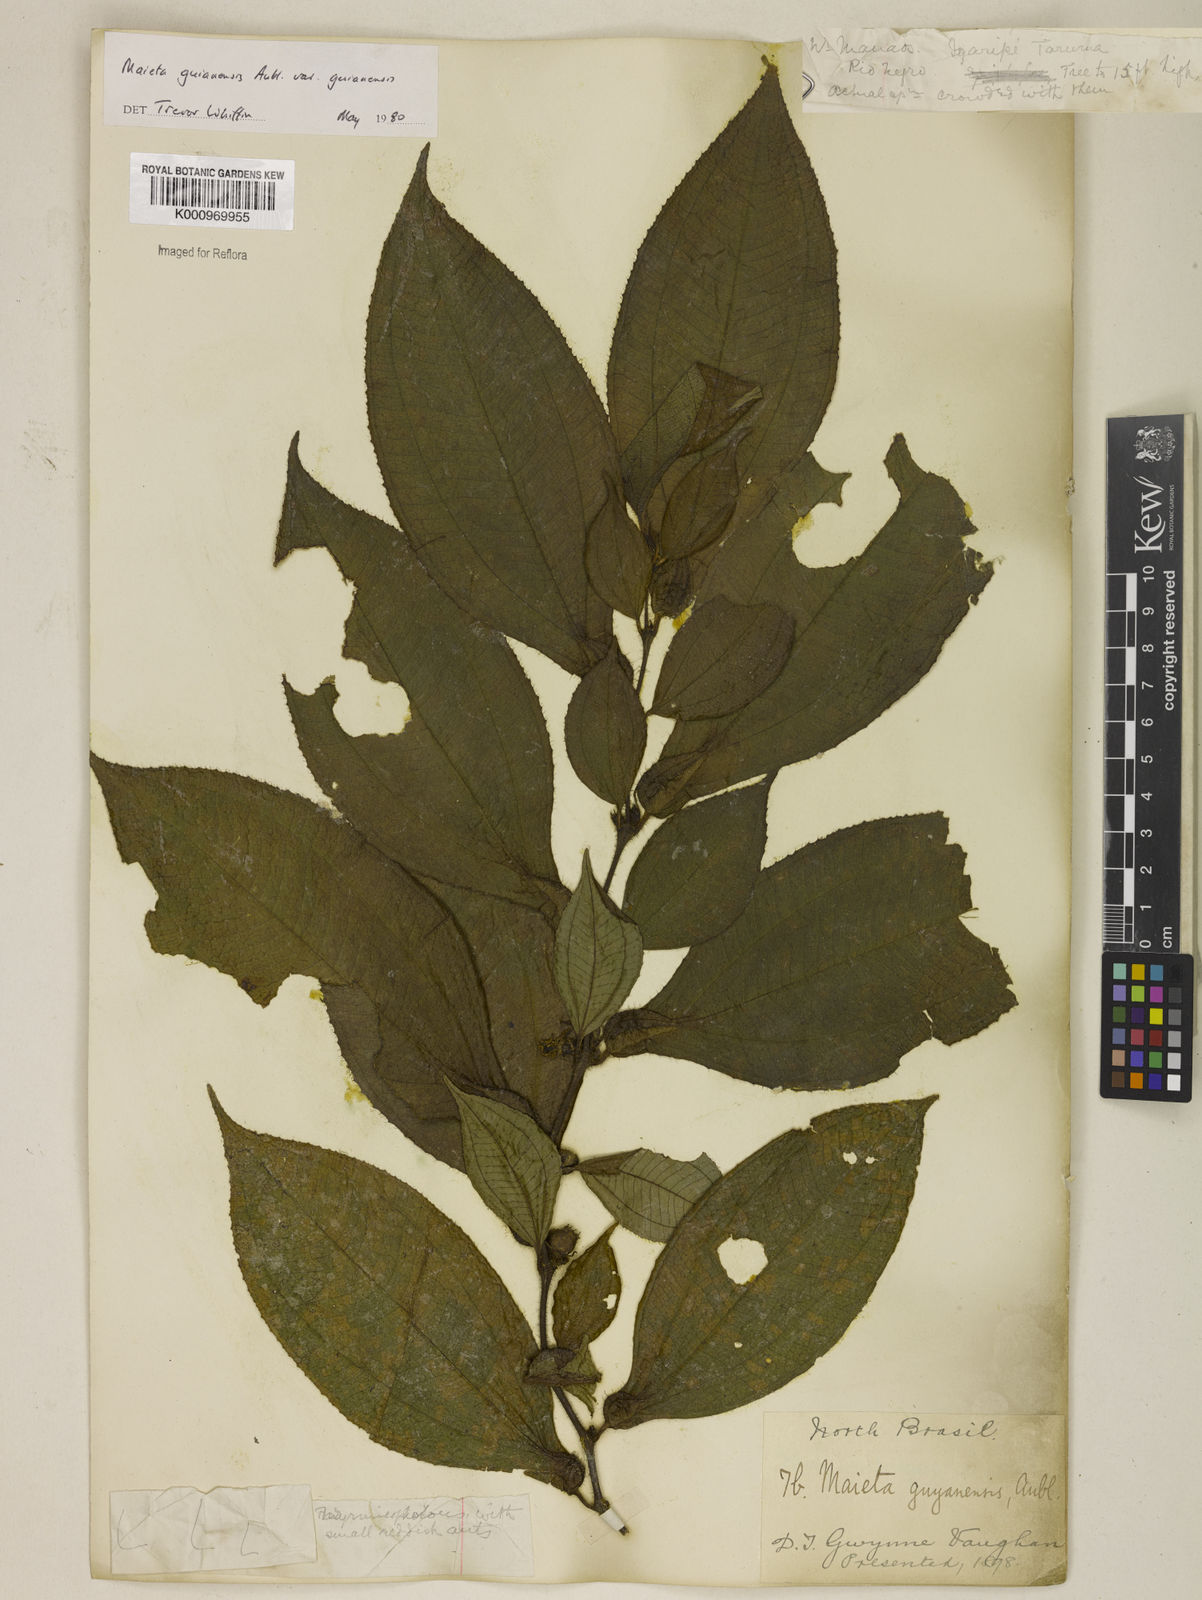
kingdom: Plantae
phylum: Tracheophyta
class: Magnoliopsida
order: Myrtales
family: Melastomataceae
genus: Miconia
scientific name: Miconia mayeta
